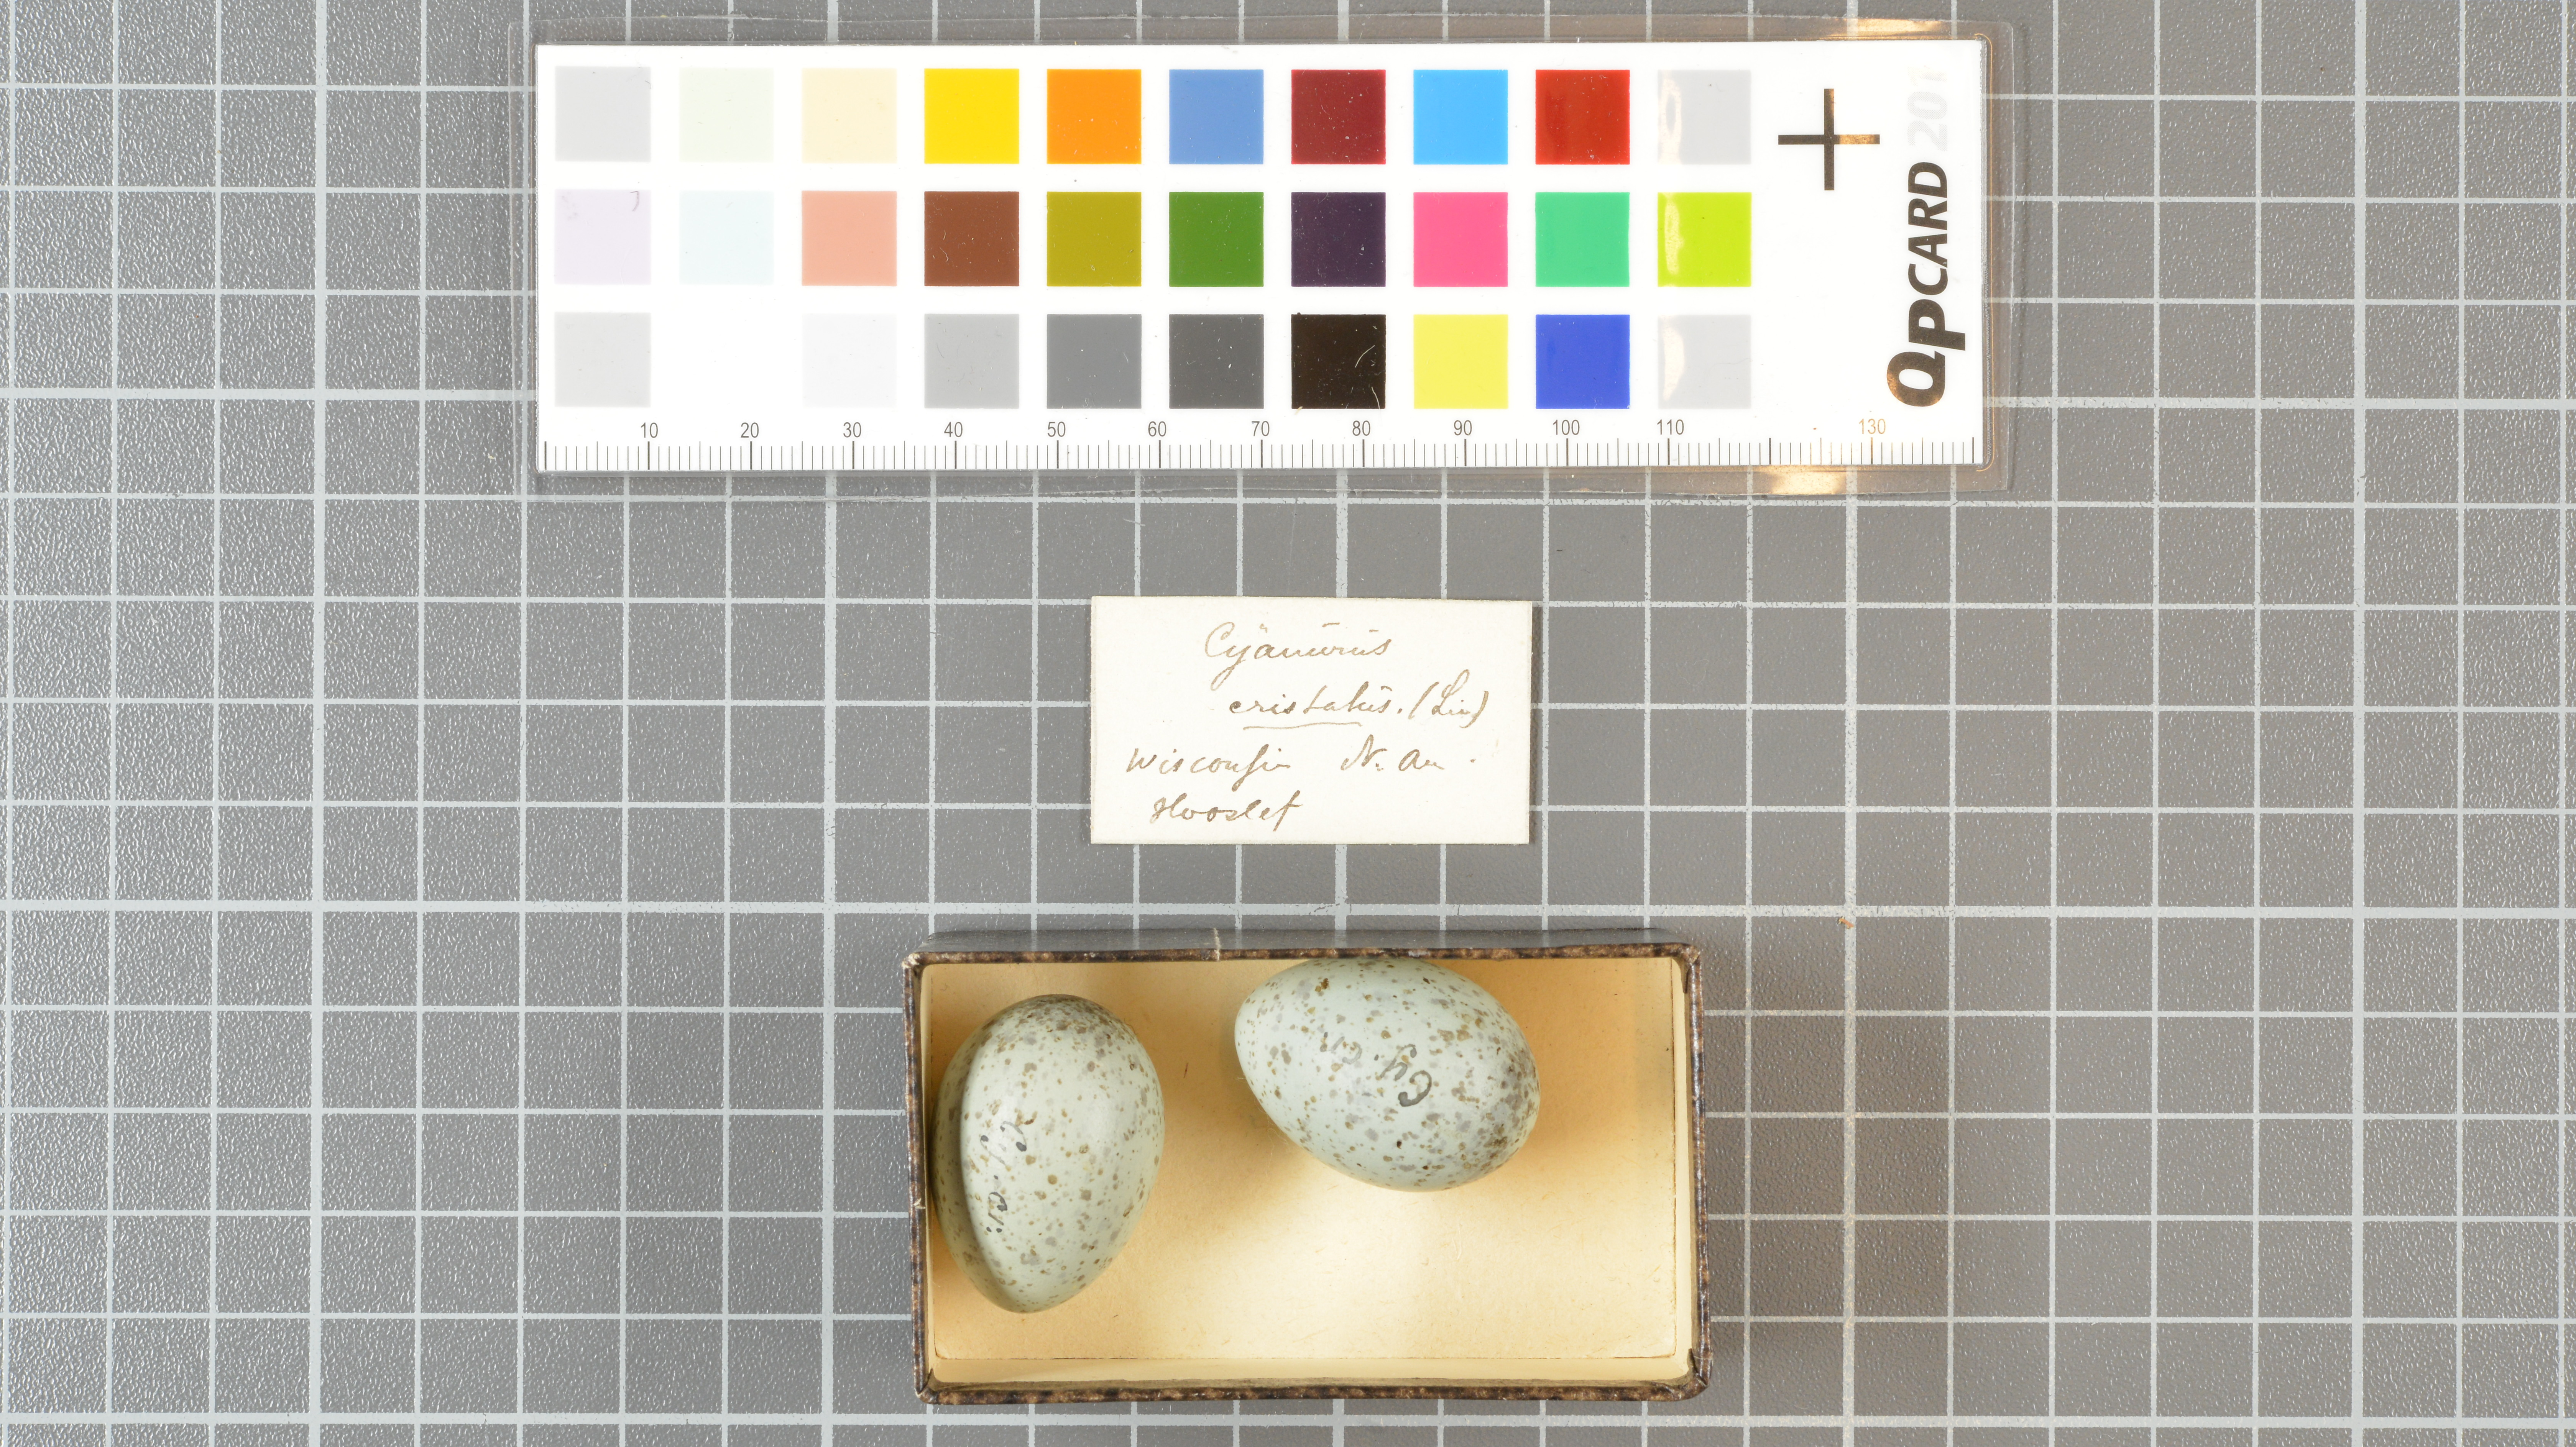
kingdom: Animalia
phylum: Chordata
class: Aves
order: Passeriformes
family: Corvidae
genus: Cyanocitta
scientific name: Cyanocitta cristata
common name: Blue jay
